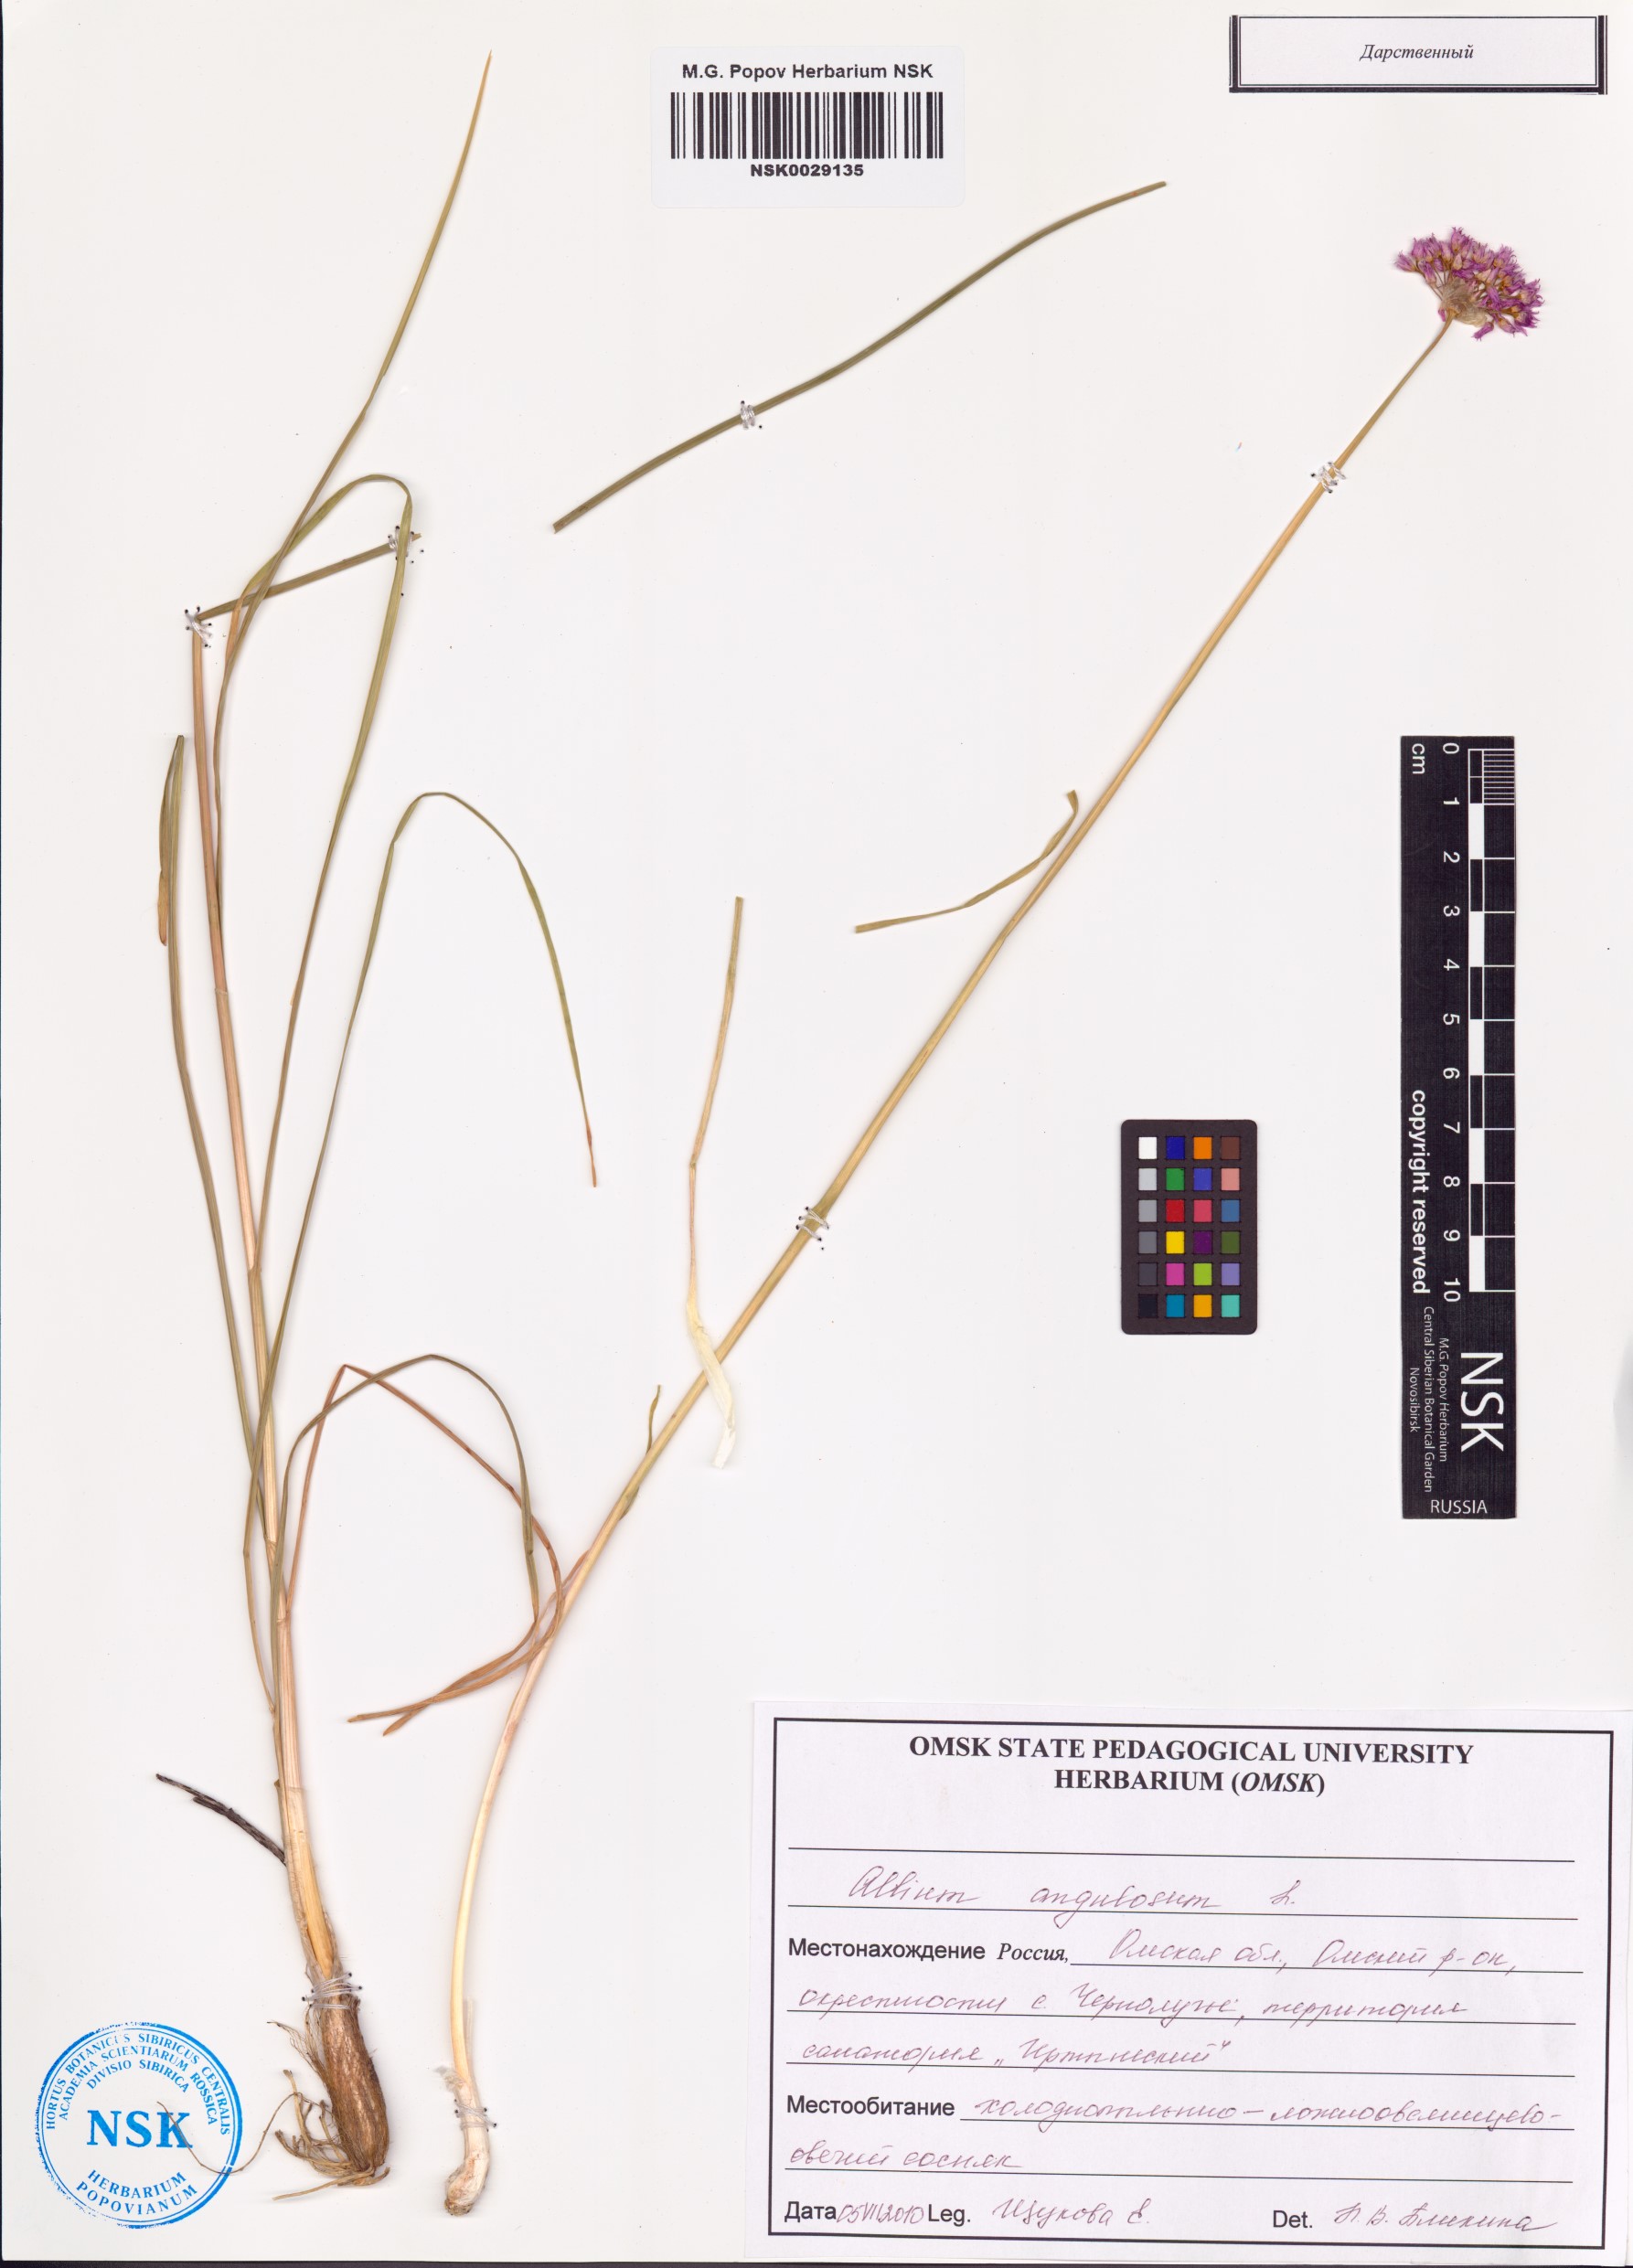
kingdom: Plantae
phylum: Tracheophyta
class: Liliopsida
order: Asparagales
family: Amaryllidaceae
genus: Allium
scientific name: Allium angulosum
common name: Mouse garlic
